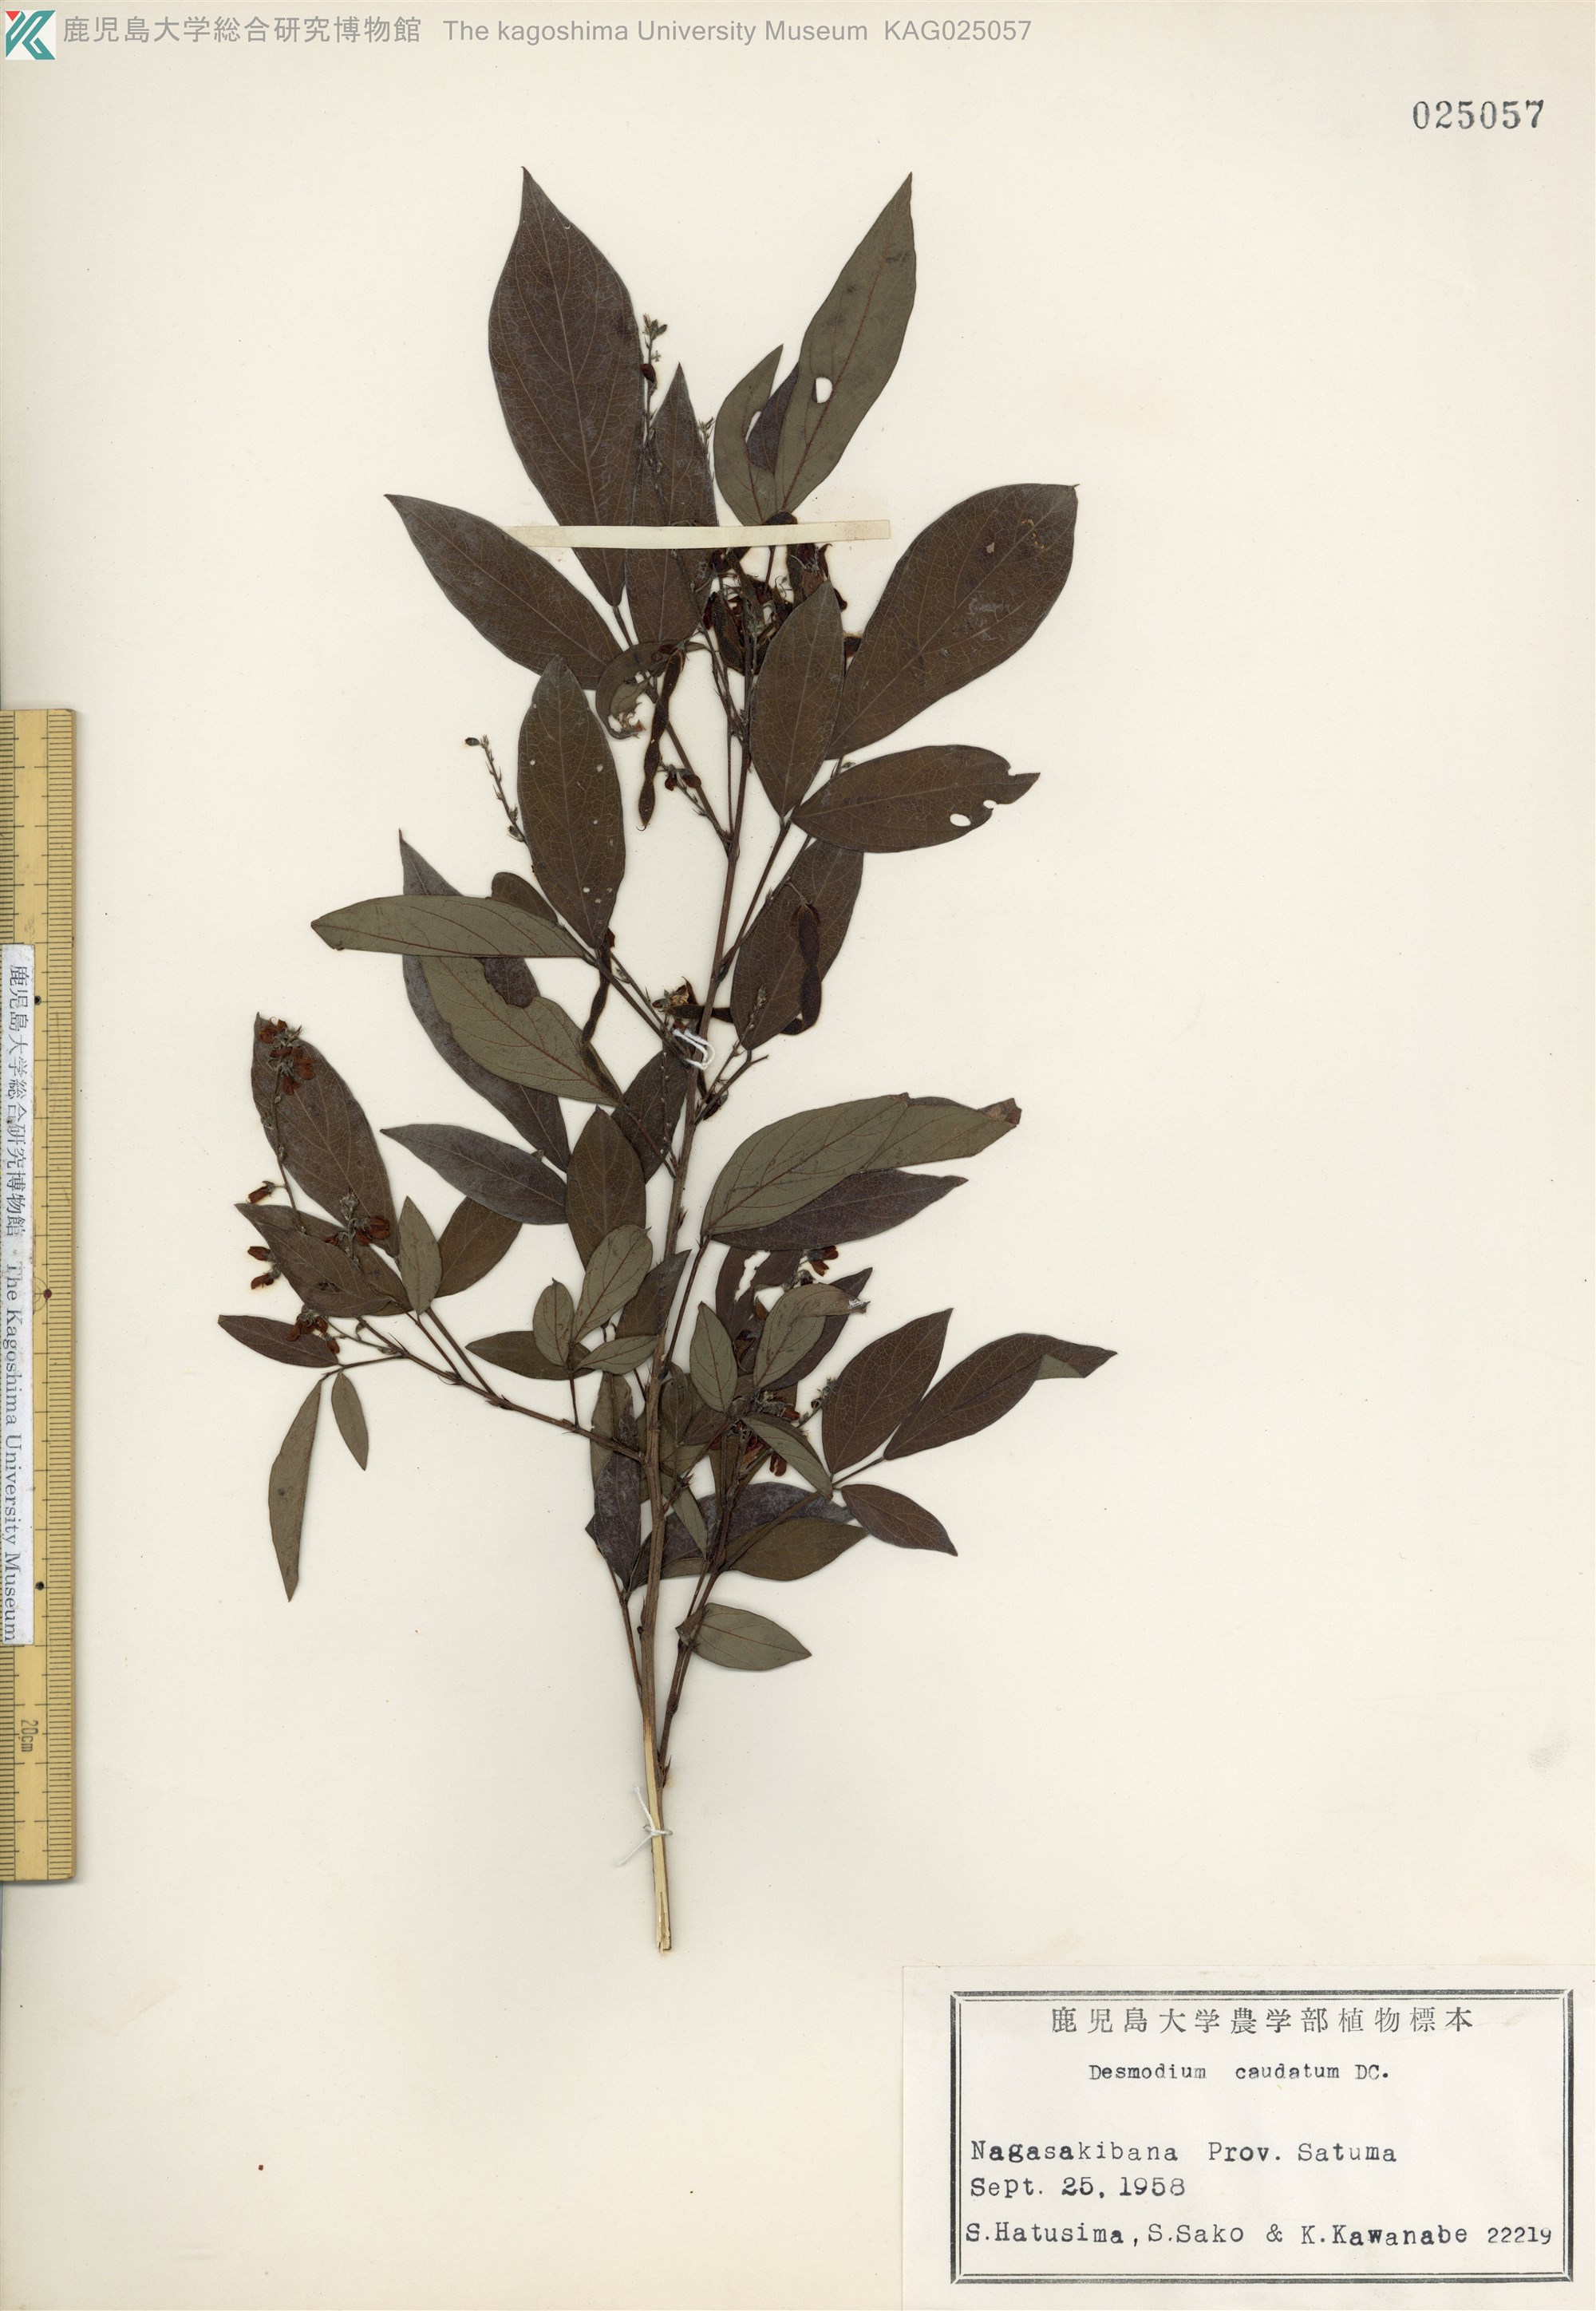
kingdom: Plantae
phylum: Tracheophyta
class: Magnoliopsida
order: Fabales
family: Fabaceae
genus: Ohwia
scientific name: Ohwia caudata
